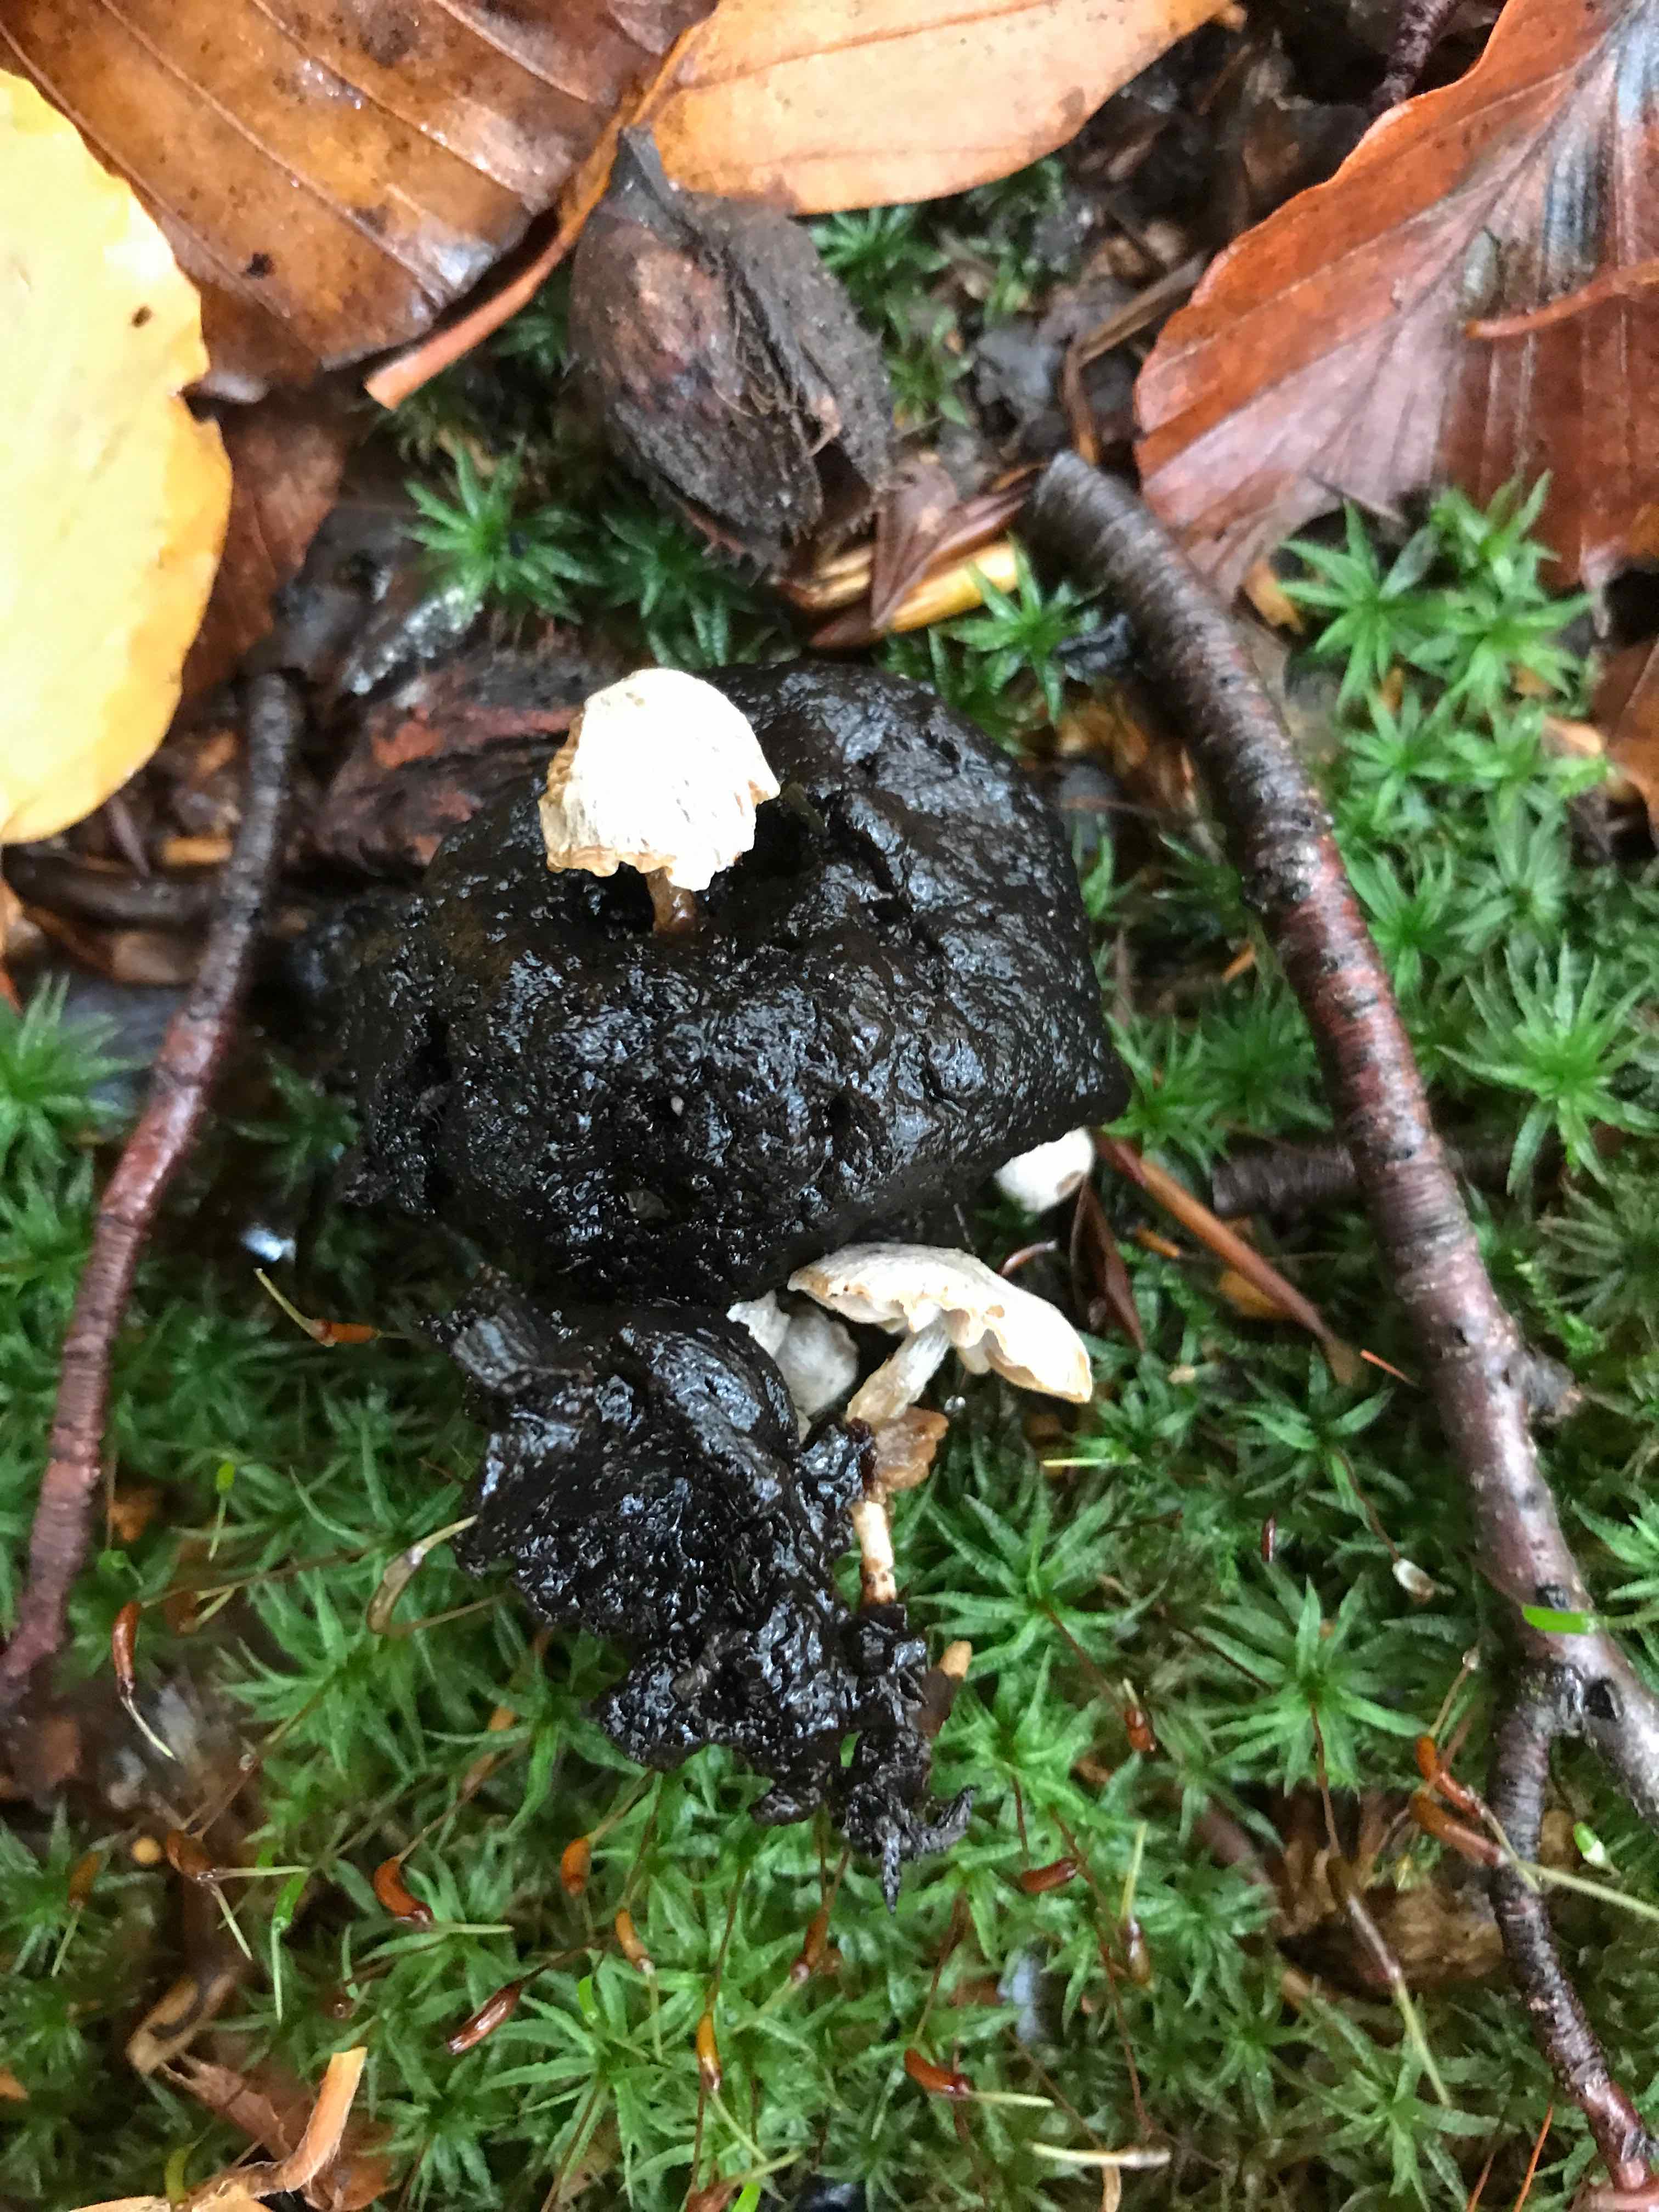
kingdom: Fungi
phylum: Basidiomycota
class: Agaricomycetes
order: Agaricales
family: Lyophyllaceae
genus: Asterophora
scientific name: Asterophora parasitica
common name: grå snyltehat
